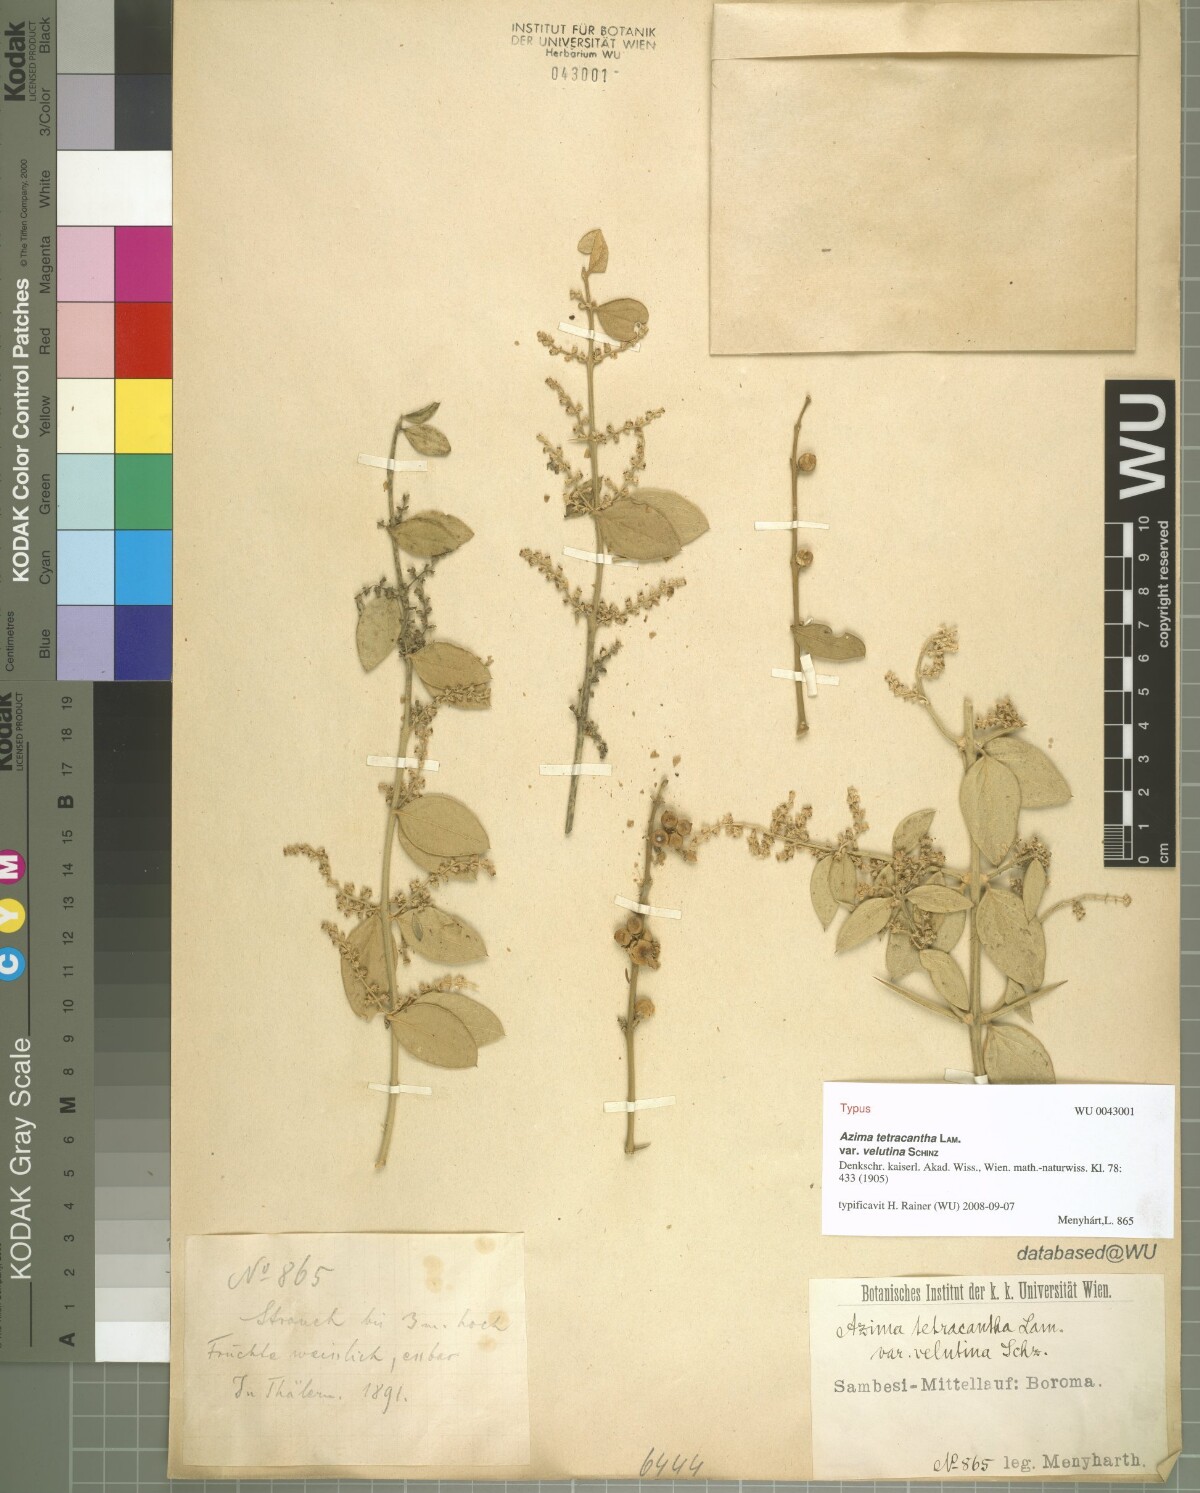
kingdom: Plantae
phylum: Tracheophyta
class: Magnoliopsida
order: Brassicales
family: Salvadoraceae
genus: Azima
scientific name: Azima tetracantha
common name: Needle bush
